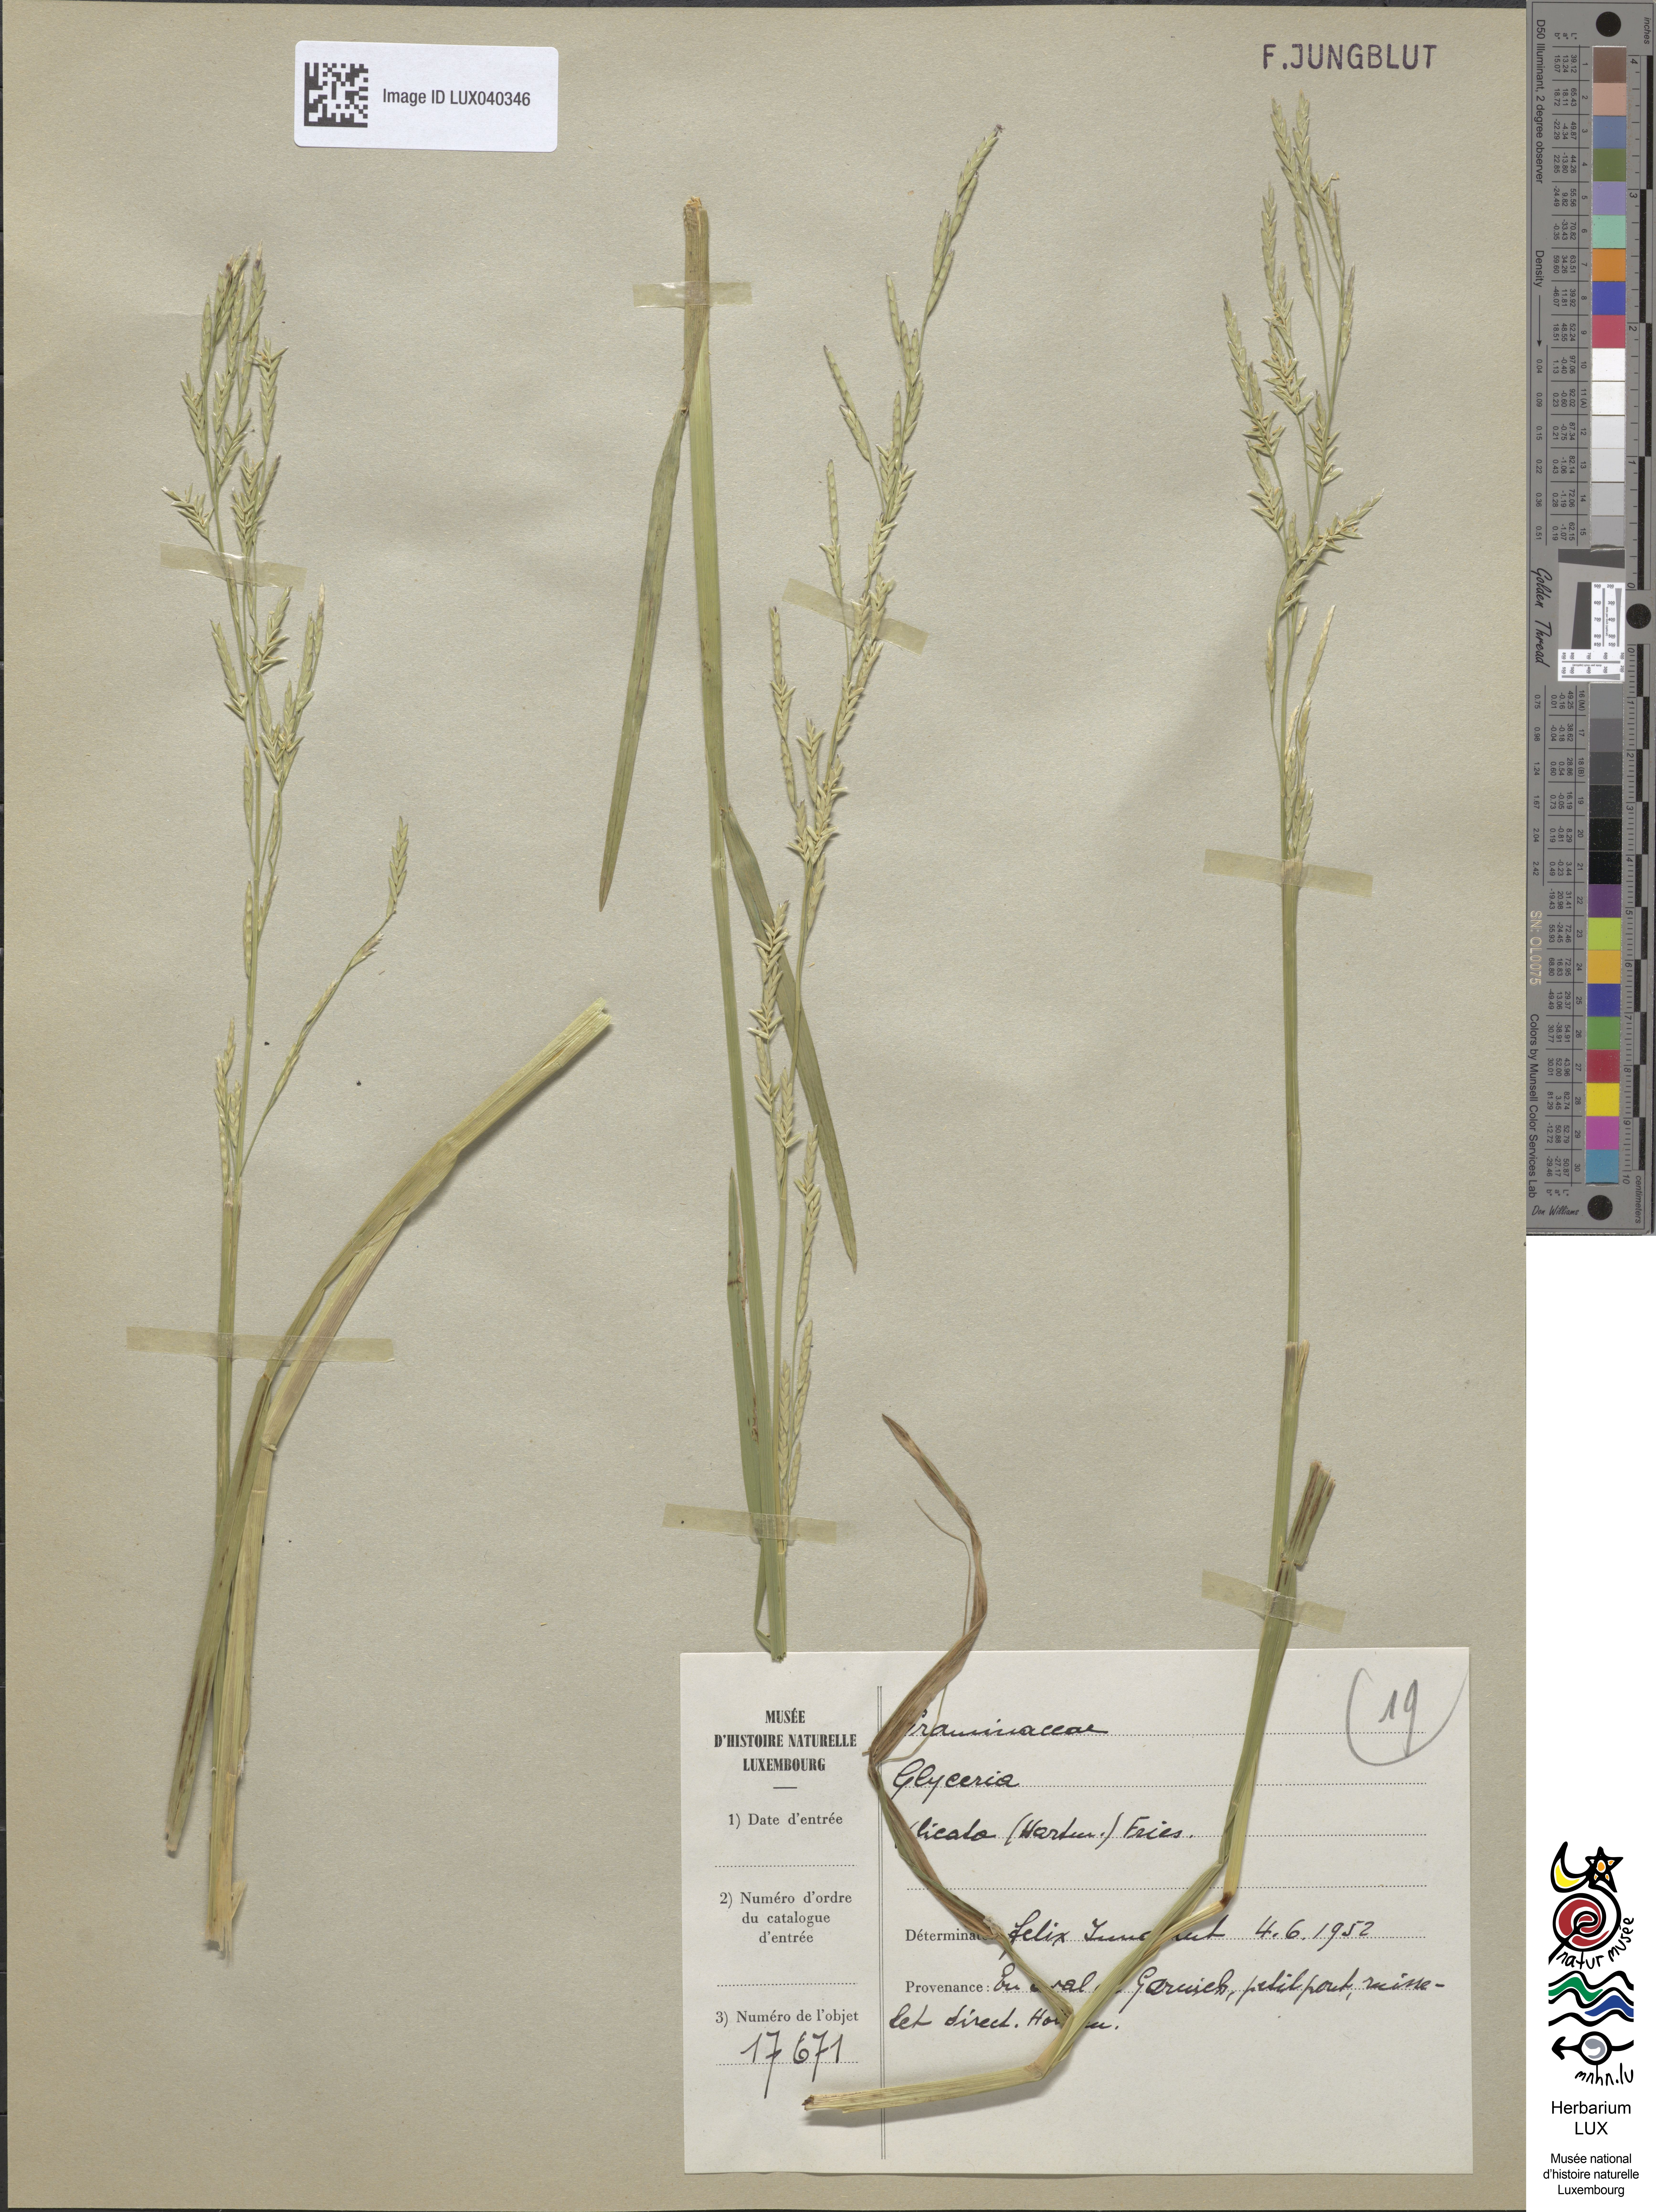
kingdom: Plantae
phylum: Tracheophyta
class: Liliopsida
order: Poales
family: Poaceae
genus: Glyceria
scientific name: Glyceria notata
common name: Plicate sweet-grass
